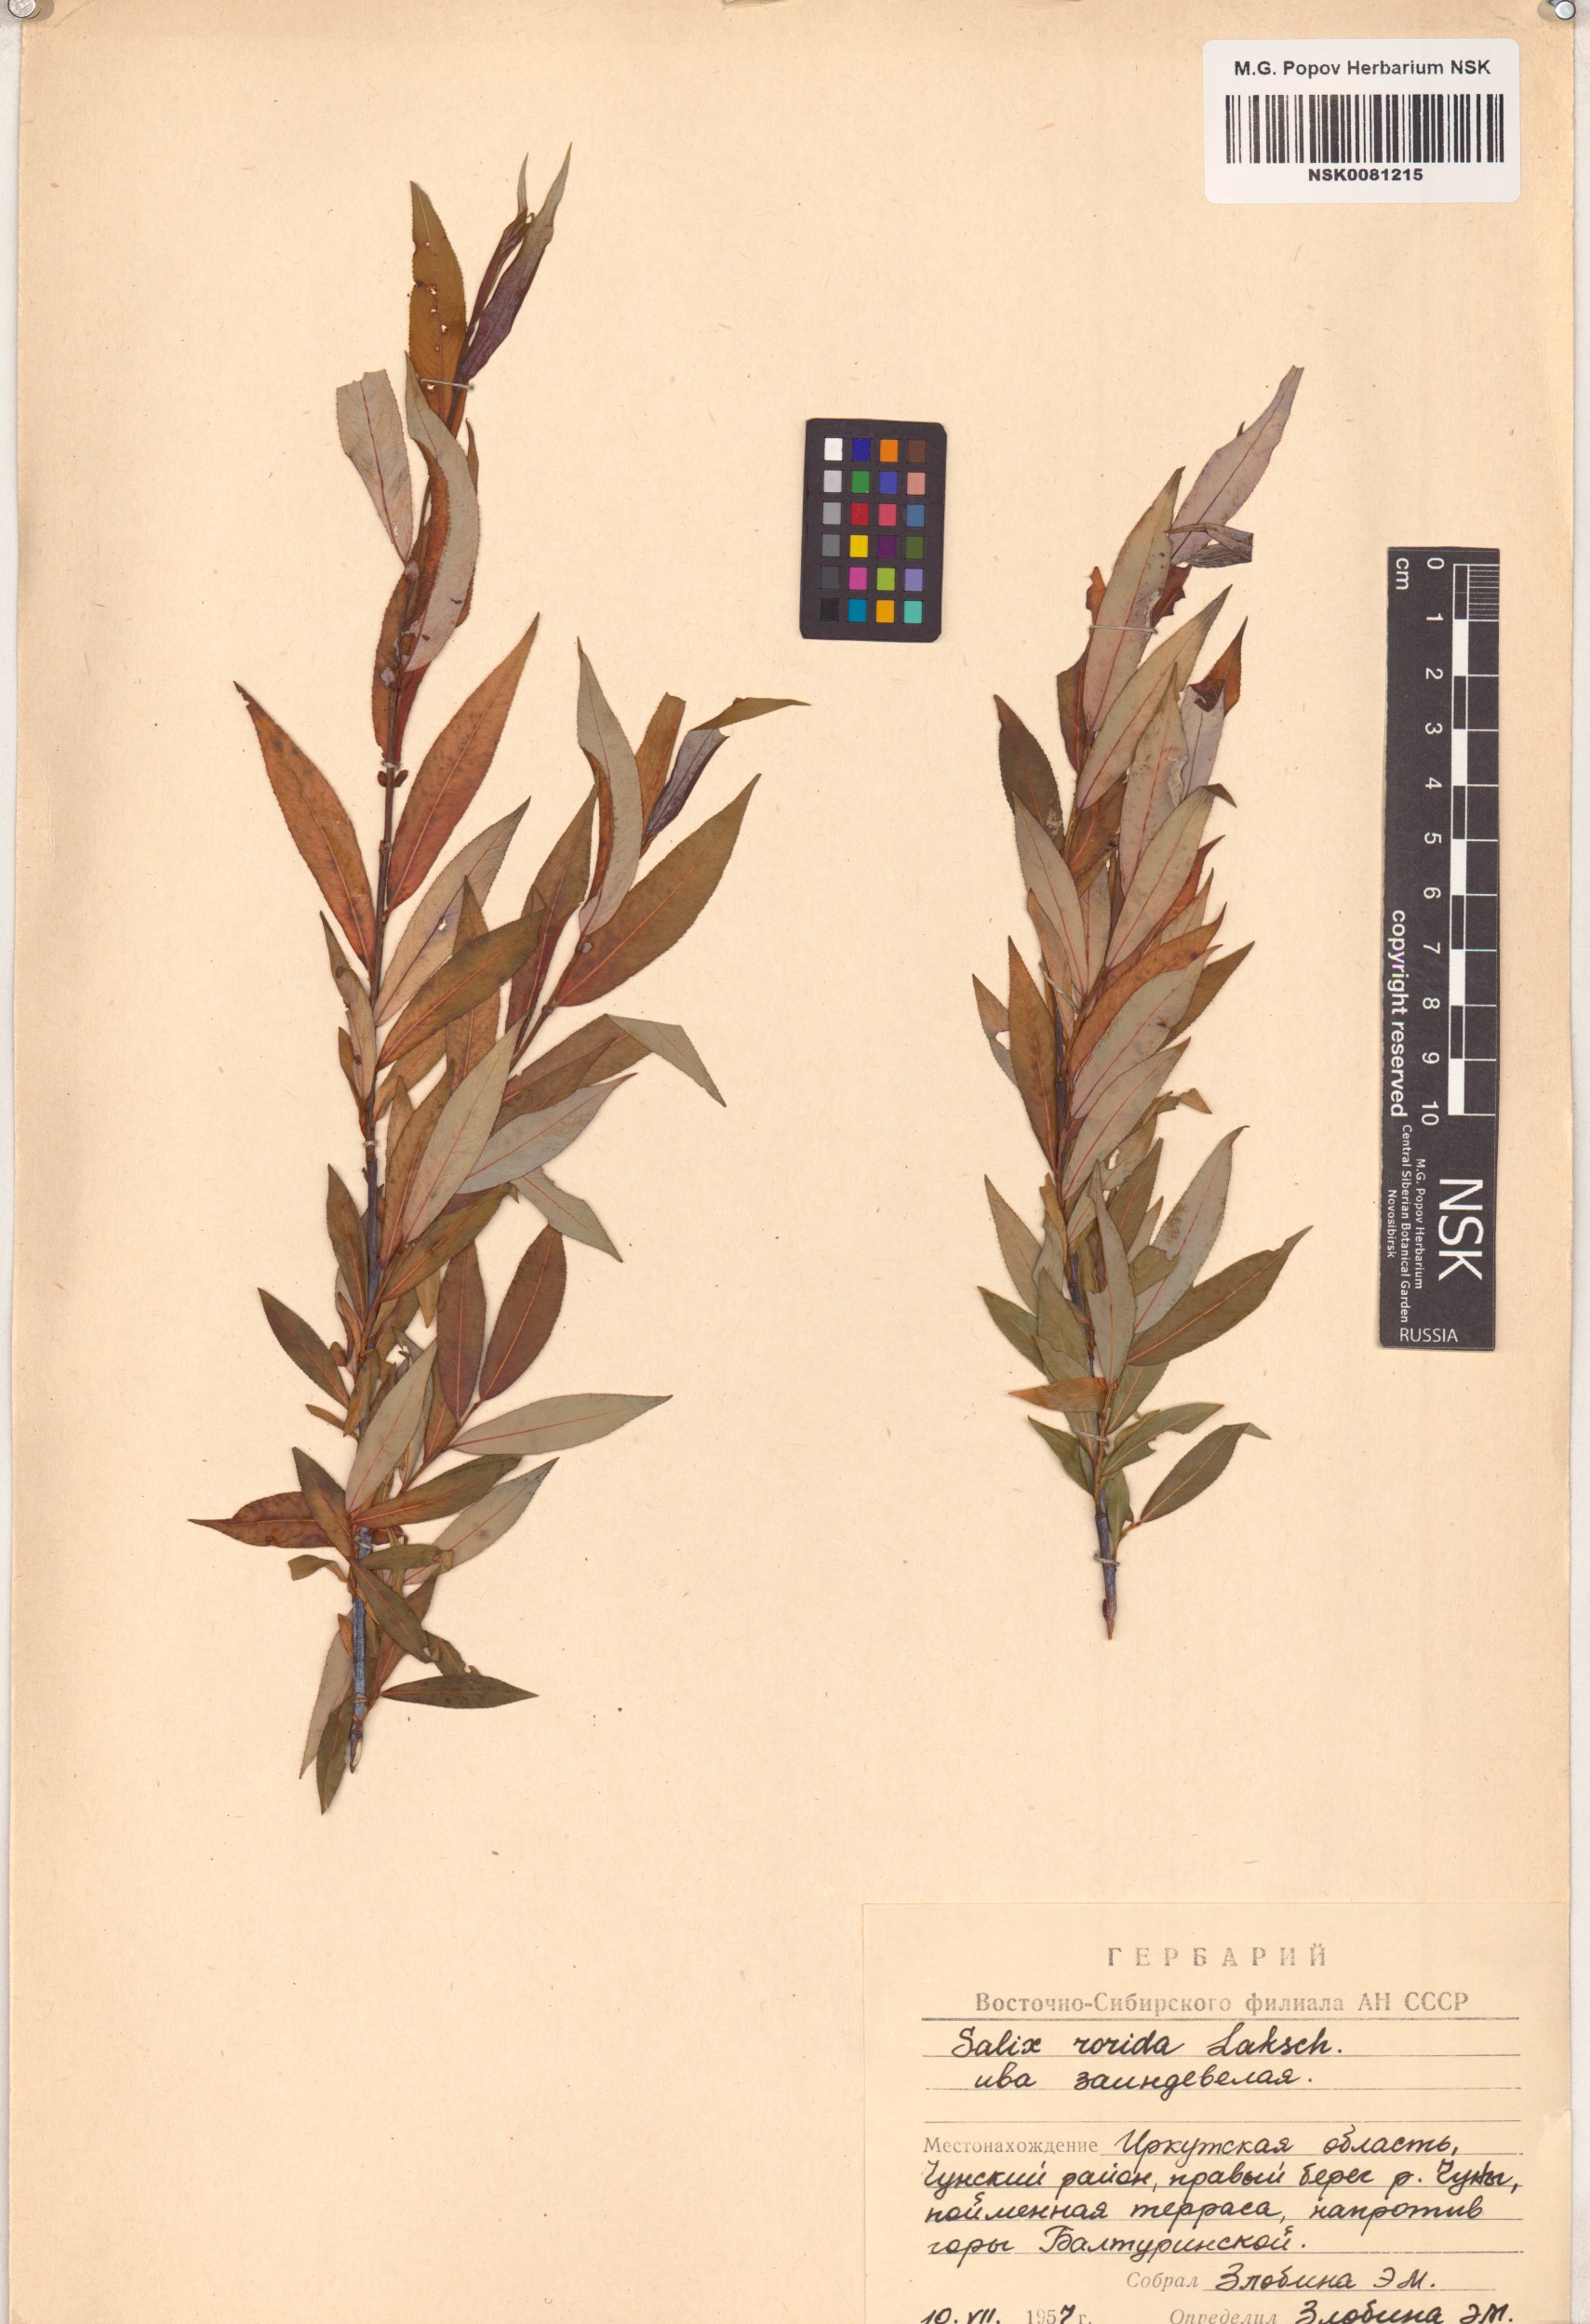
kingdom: Plantae
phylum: Tracheophyta
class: Magnoliopsida
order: Malpighiales
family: Salicaceae
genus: Salix
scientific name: Salix rorida
